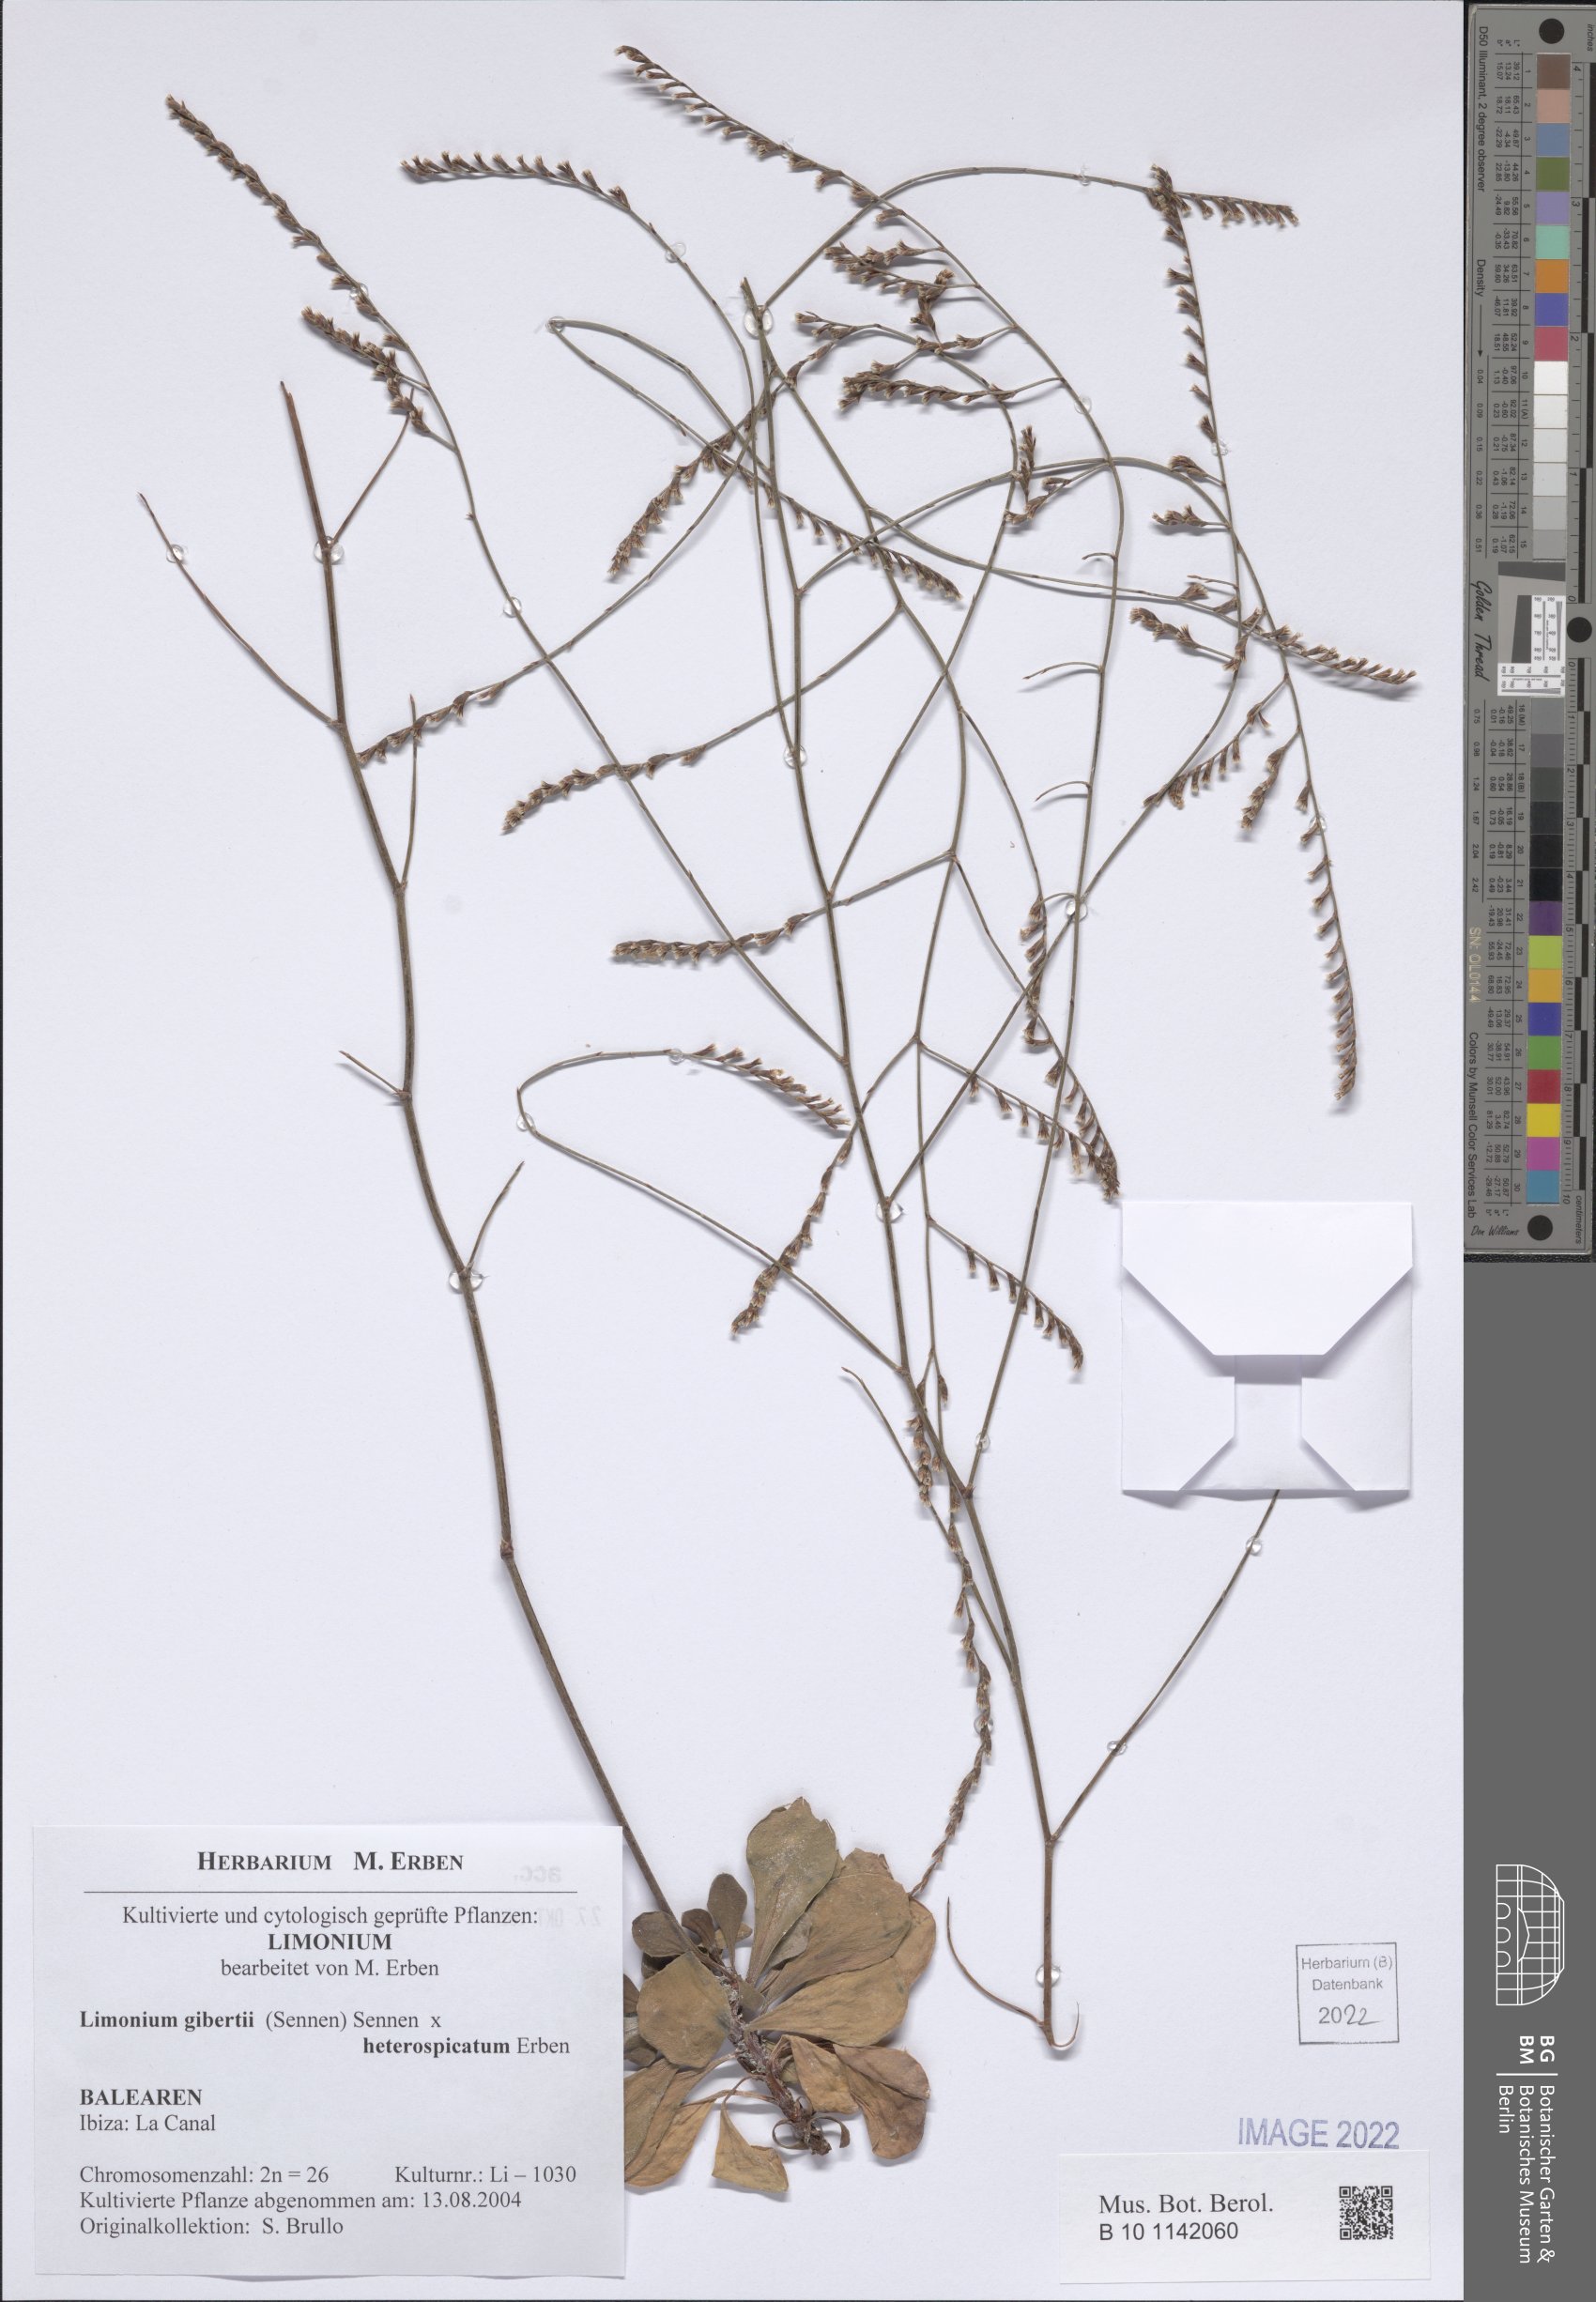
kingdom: Plantae
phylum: Tracheophyta
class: Magnoliopsida
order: Caryophyllales
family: Plumbaginaceae
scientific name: Plumbaginaceae
